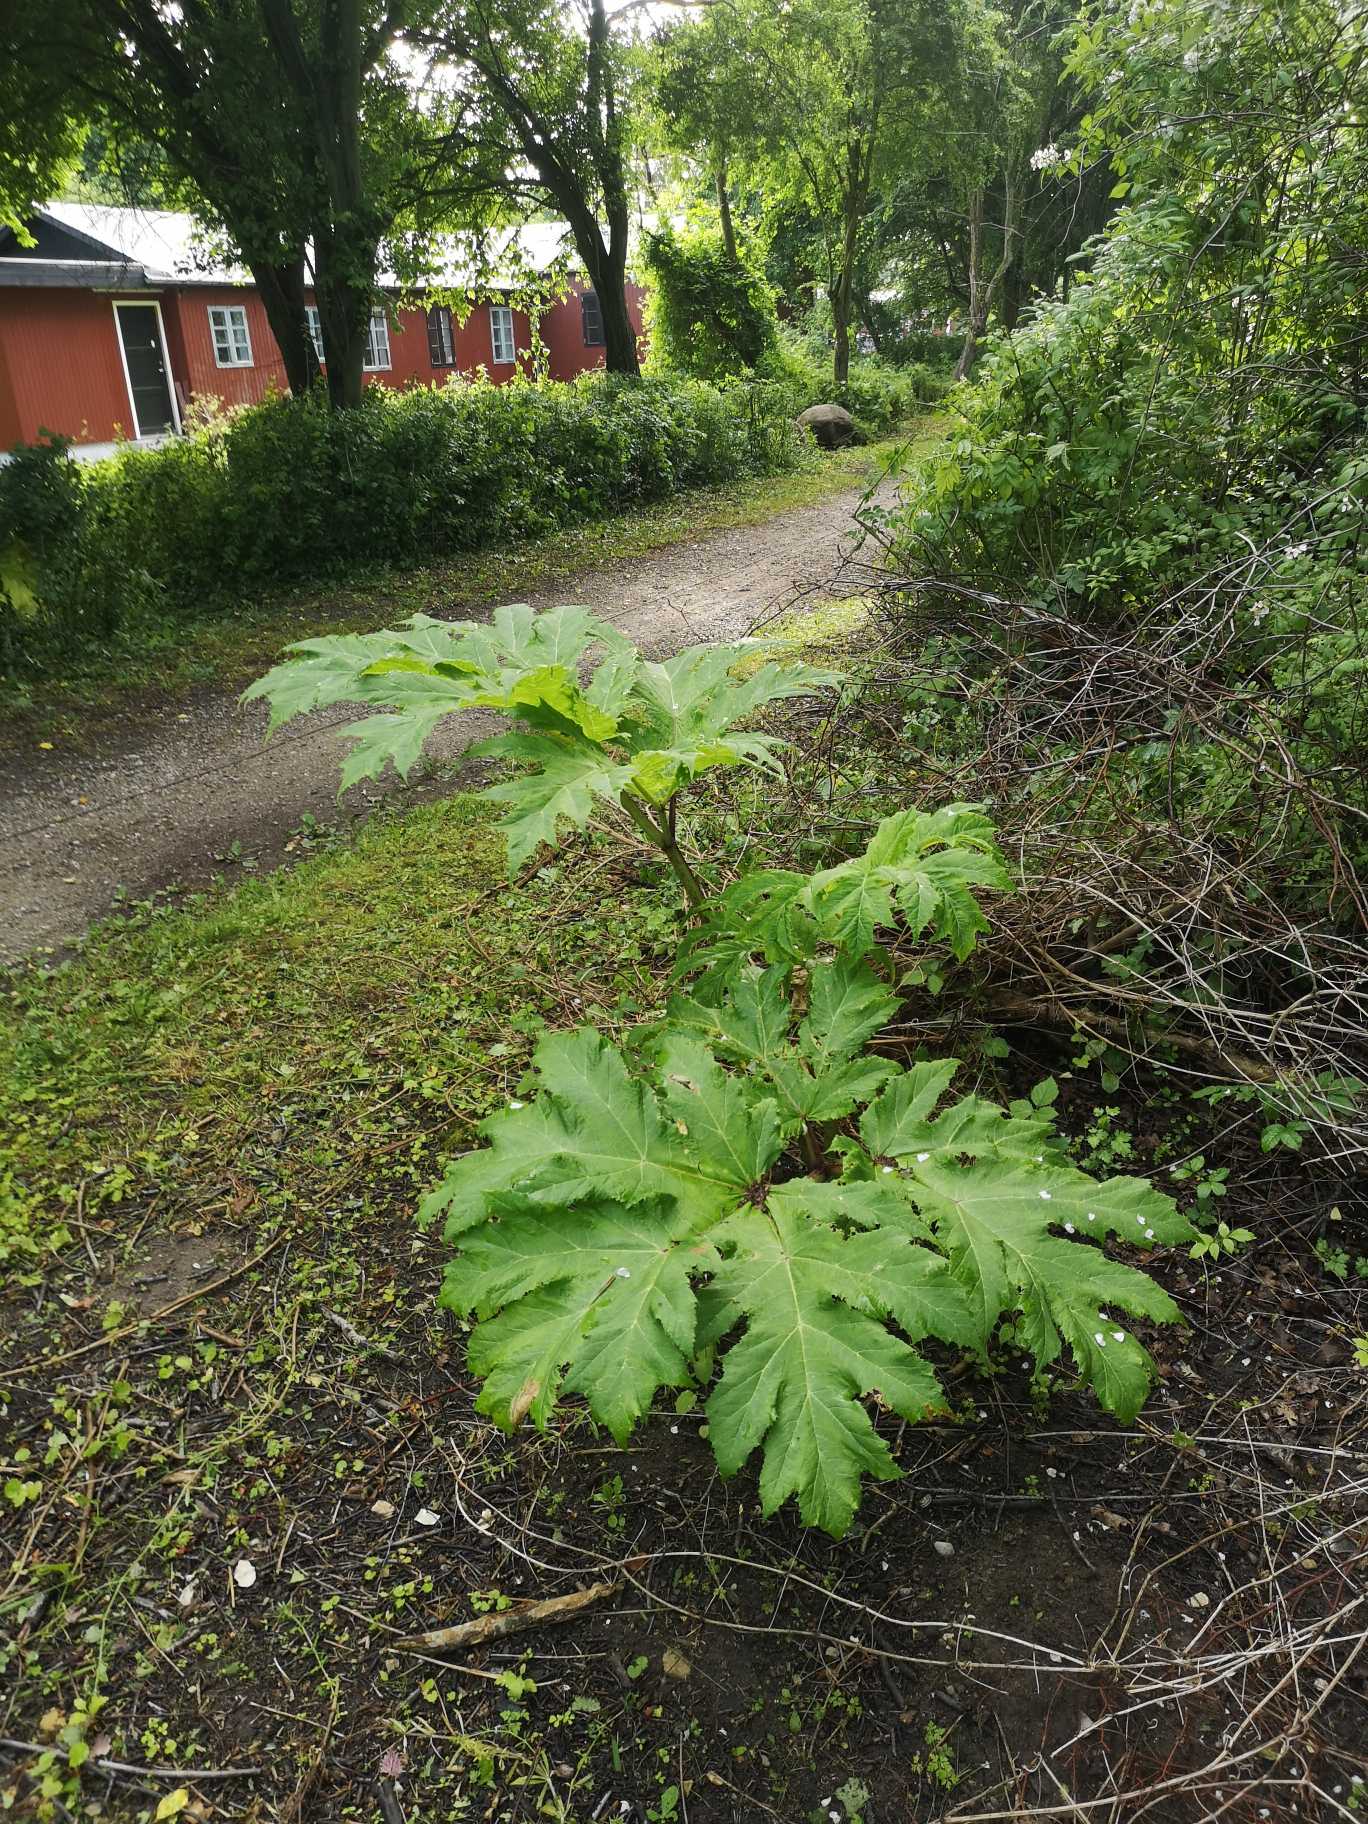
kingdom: Plantae
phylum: Tracheophyta
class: Magnoliopsida
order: Apiales
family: Apiaceae
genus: Heracleum
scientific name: Heracleum mantegazzianum
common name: Kæmpe-bjørneklo
